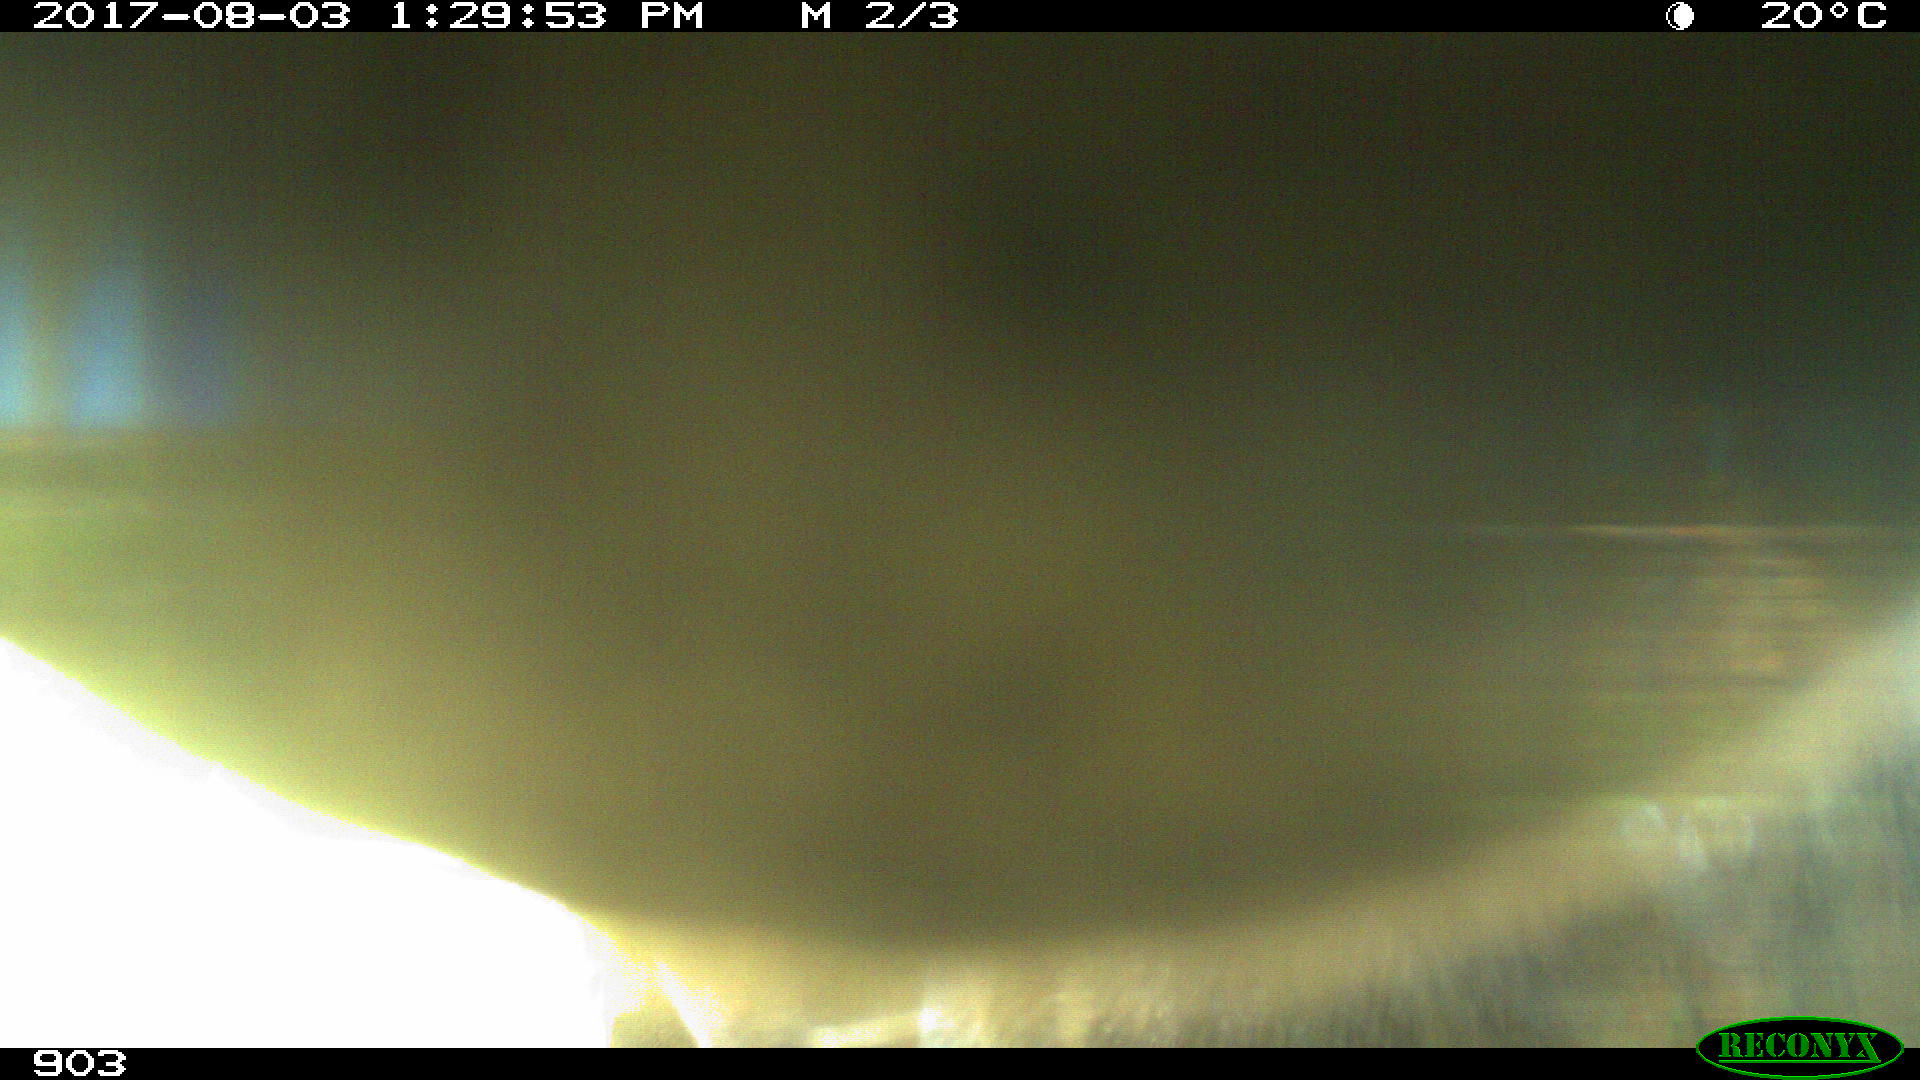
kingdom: Animalia
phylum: Chordata
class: Mammalia
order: Perissodactyla
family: Equidae
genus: Equus
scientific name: Equus caballus
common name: Horse
